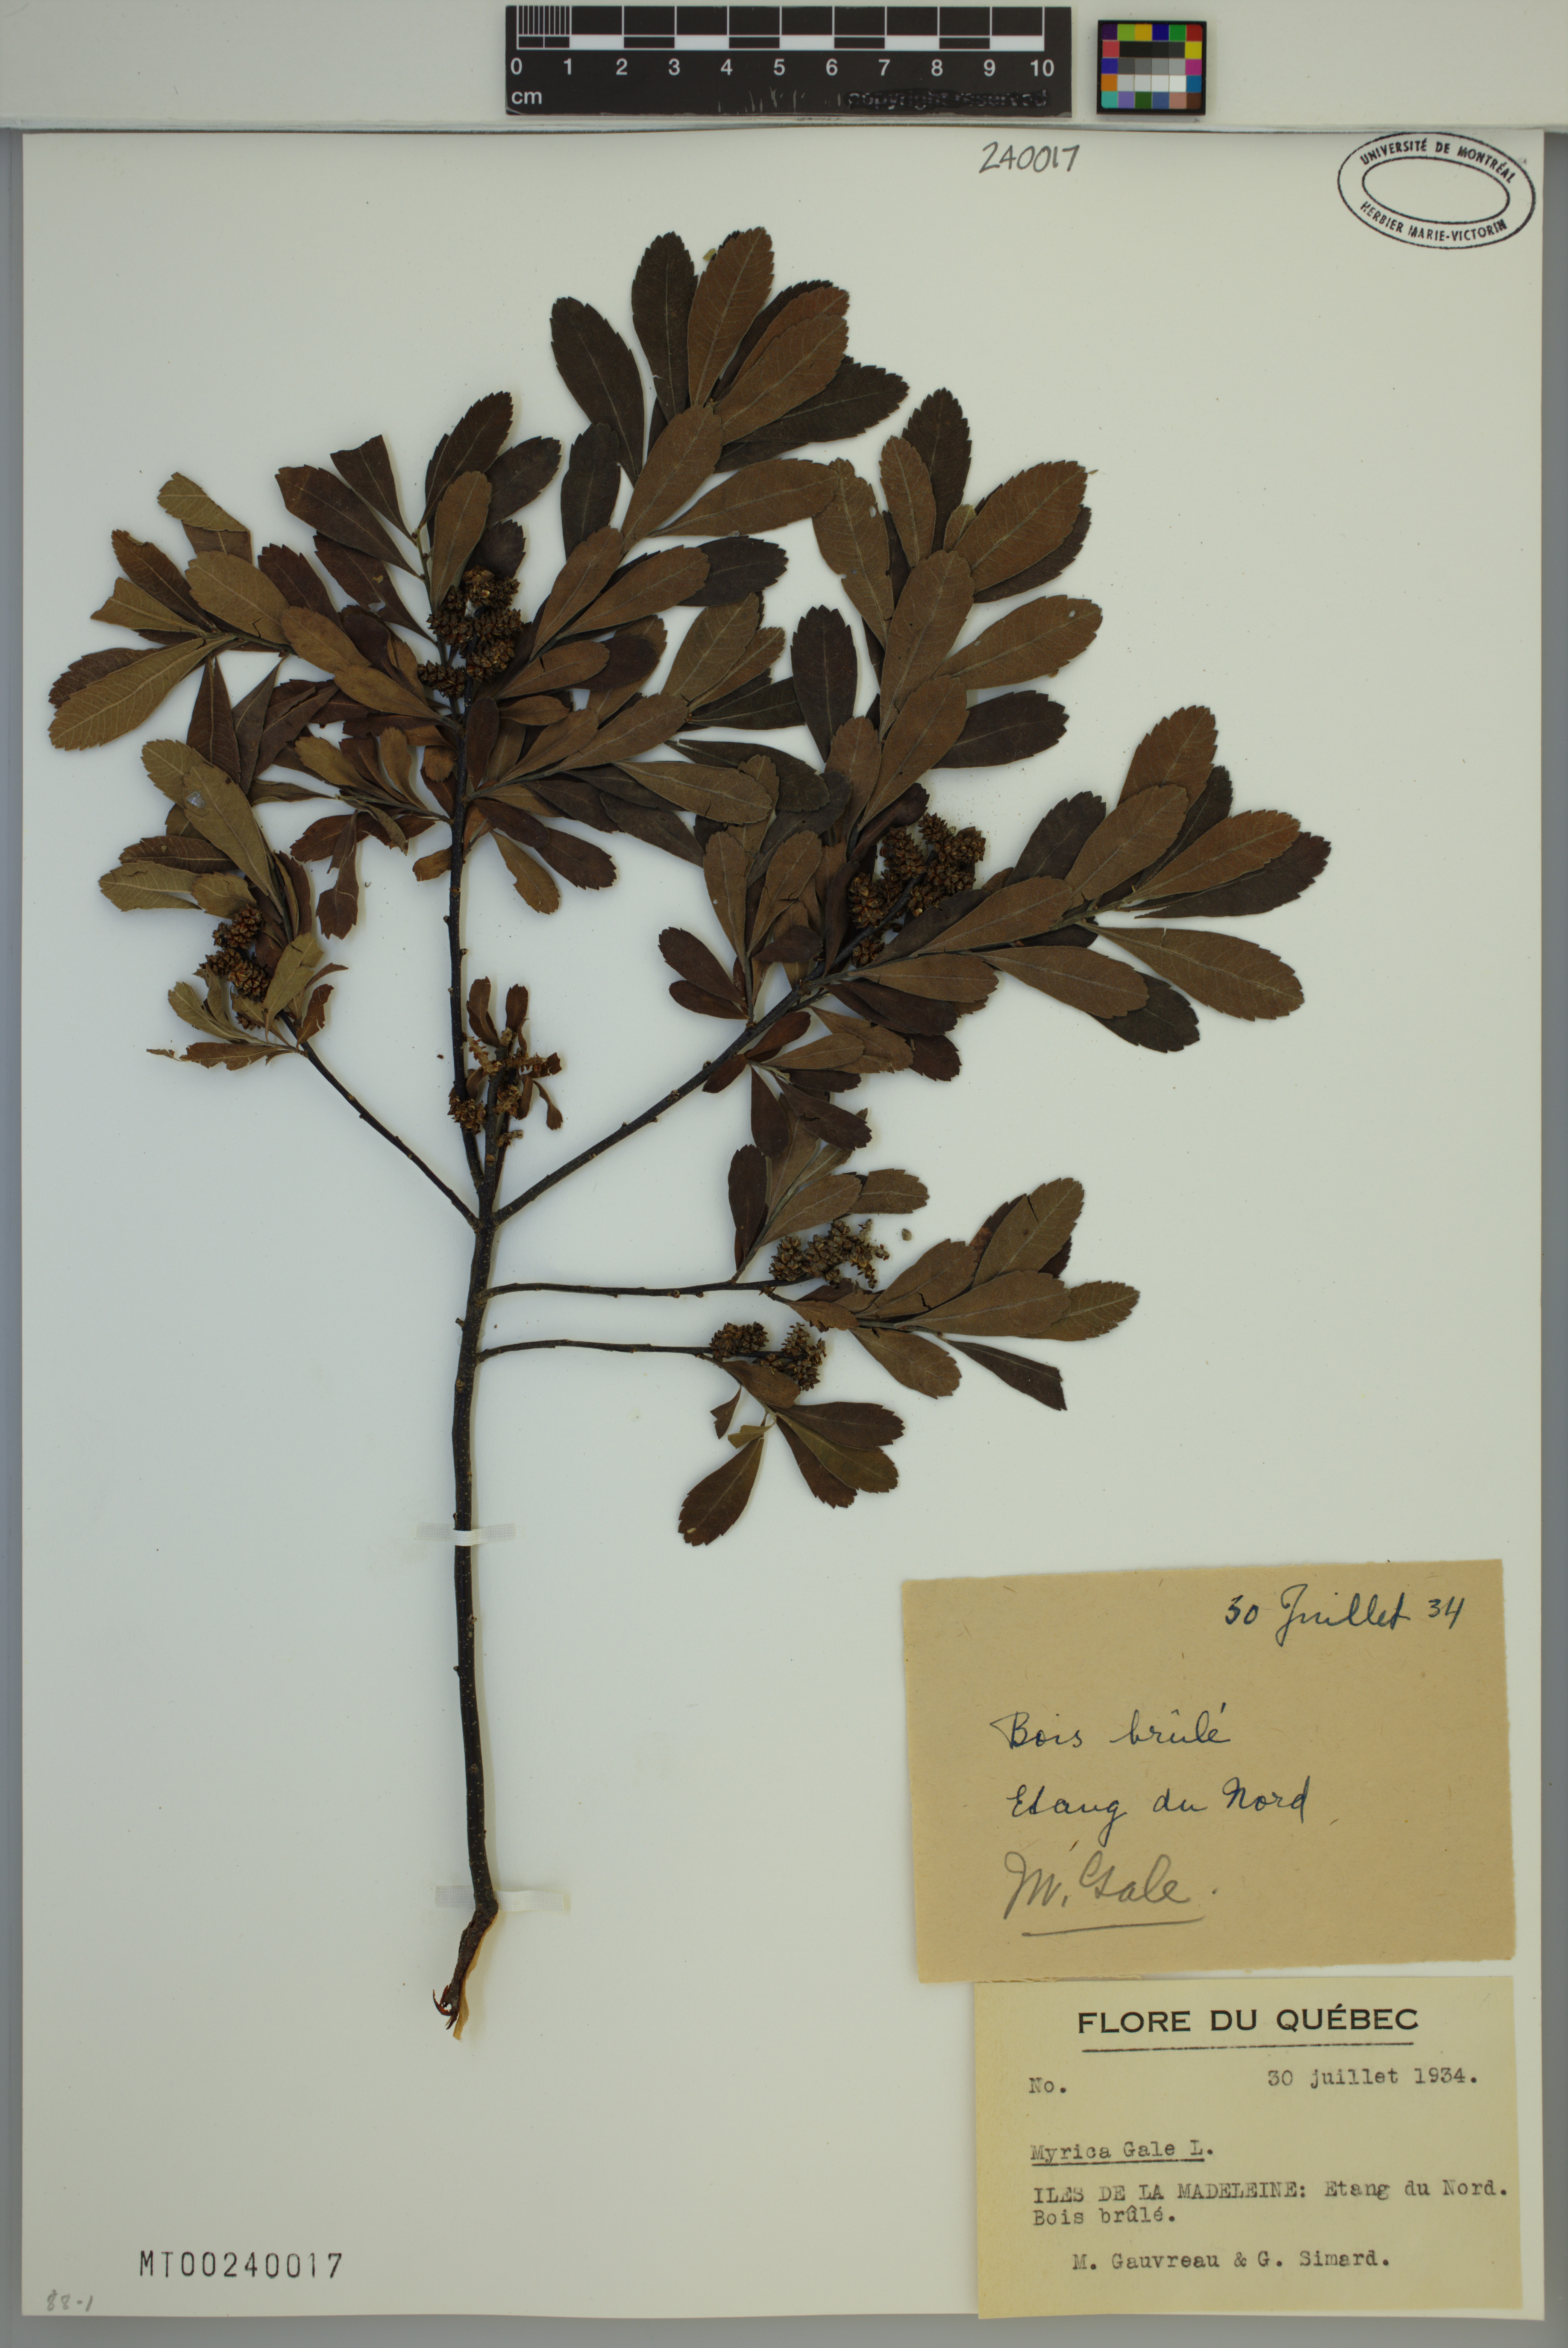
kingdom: Plantae
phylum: Tracheophyta
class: Magnoliopsida
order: Fagales
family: Myricaceae
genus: Myrica
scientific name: Myrica gale
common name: Sweet gale
